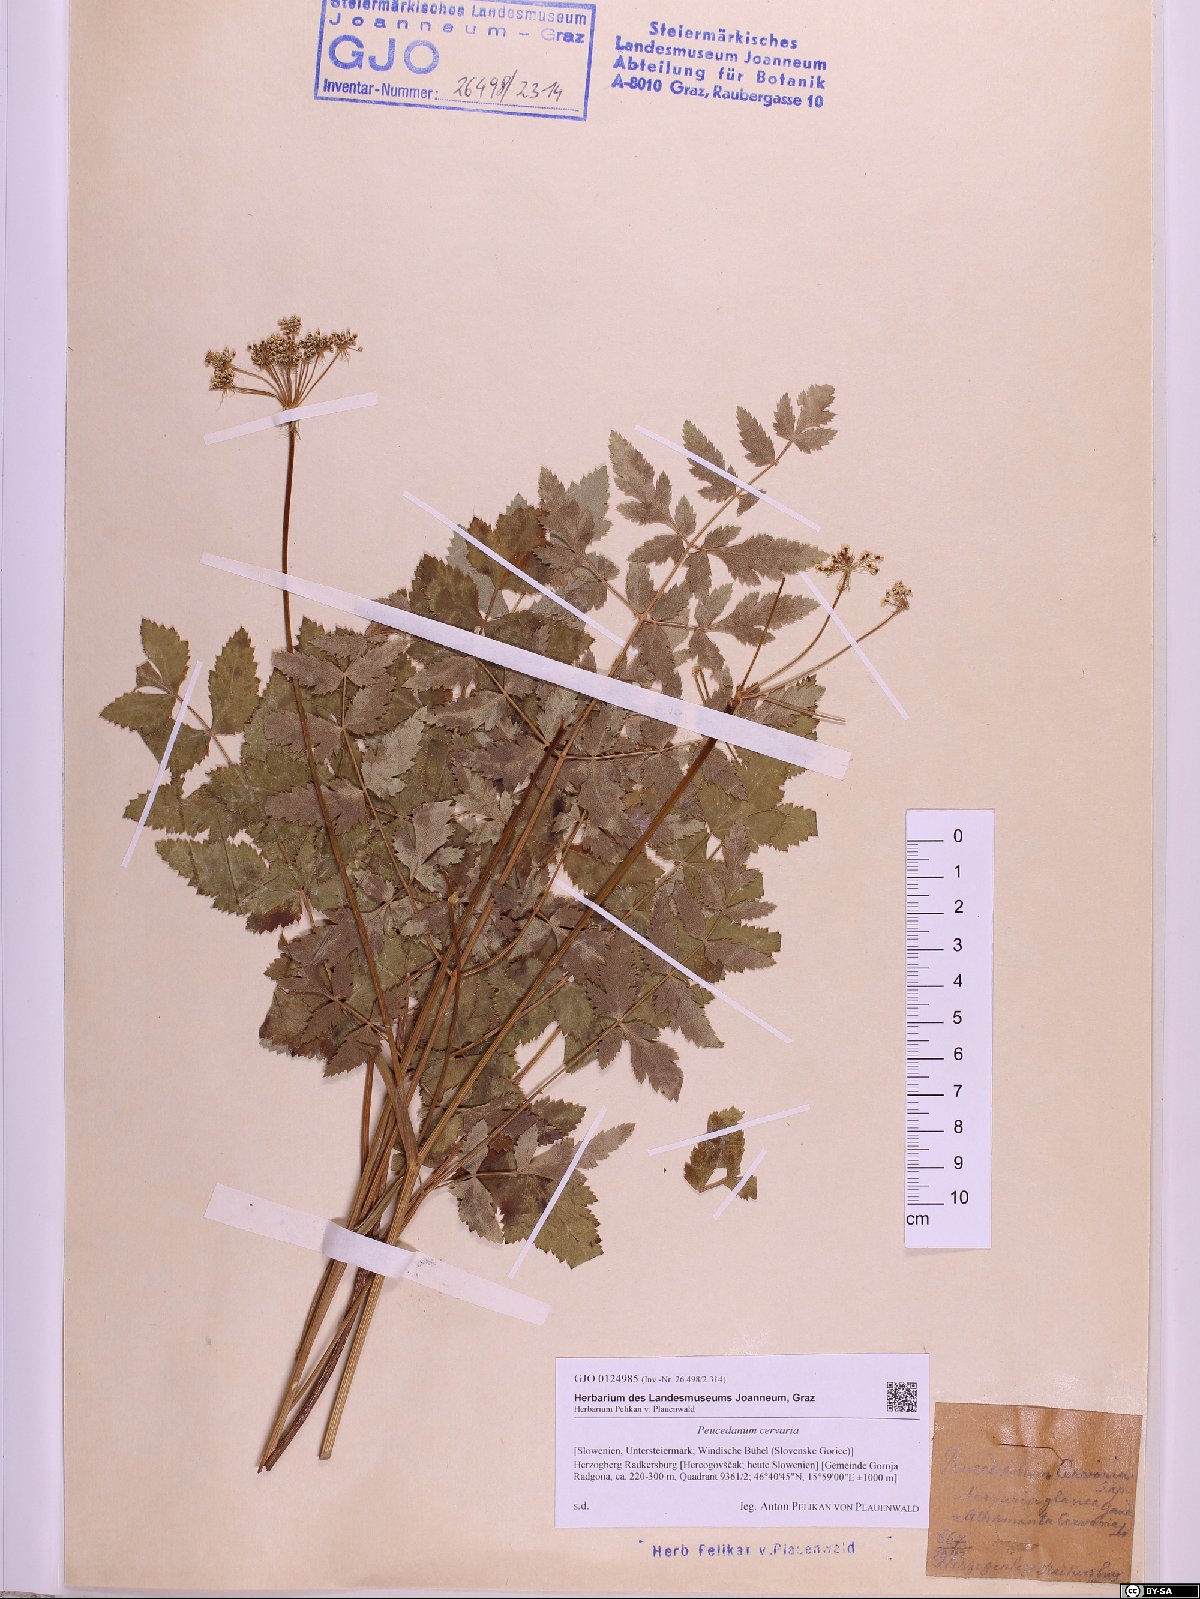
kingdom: Plantae
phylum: Tracheophyta
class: Magnoliopsida
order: Apiales
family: Apiaceae
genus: Cervaria
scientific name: Cervaria rivini
